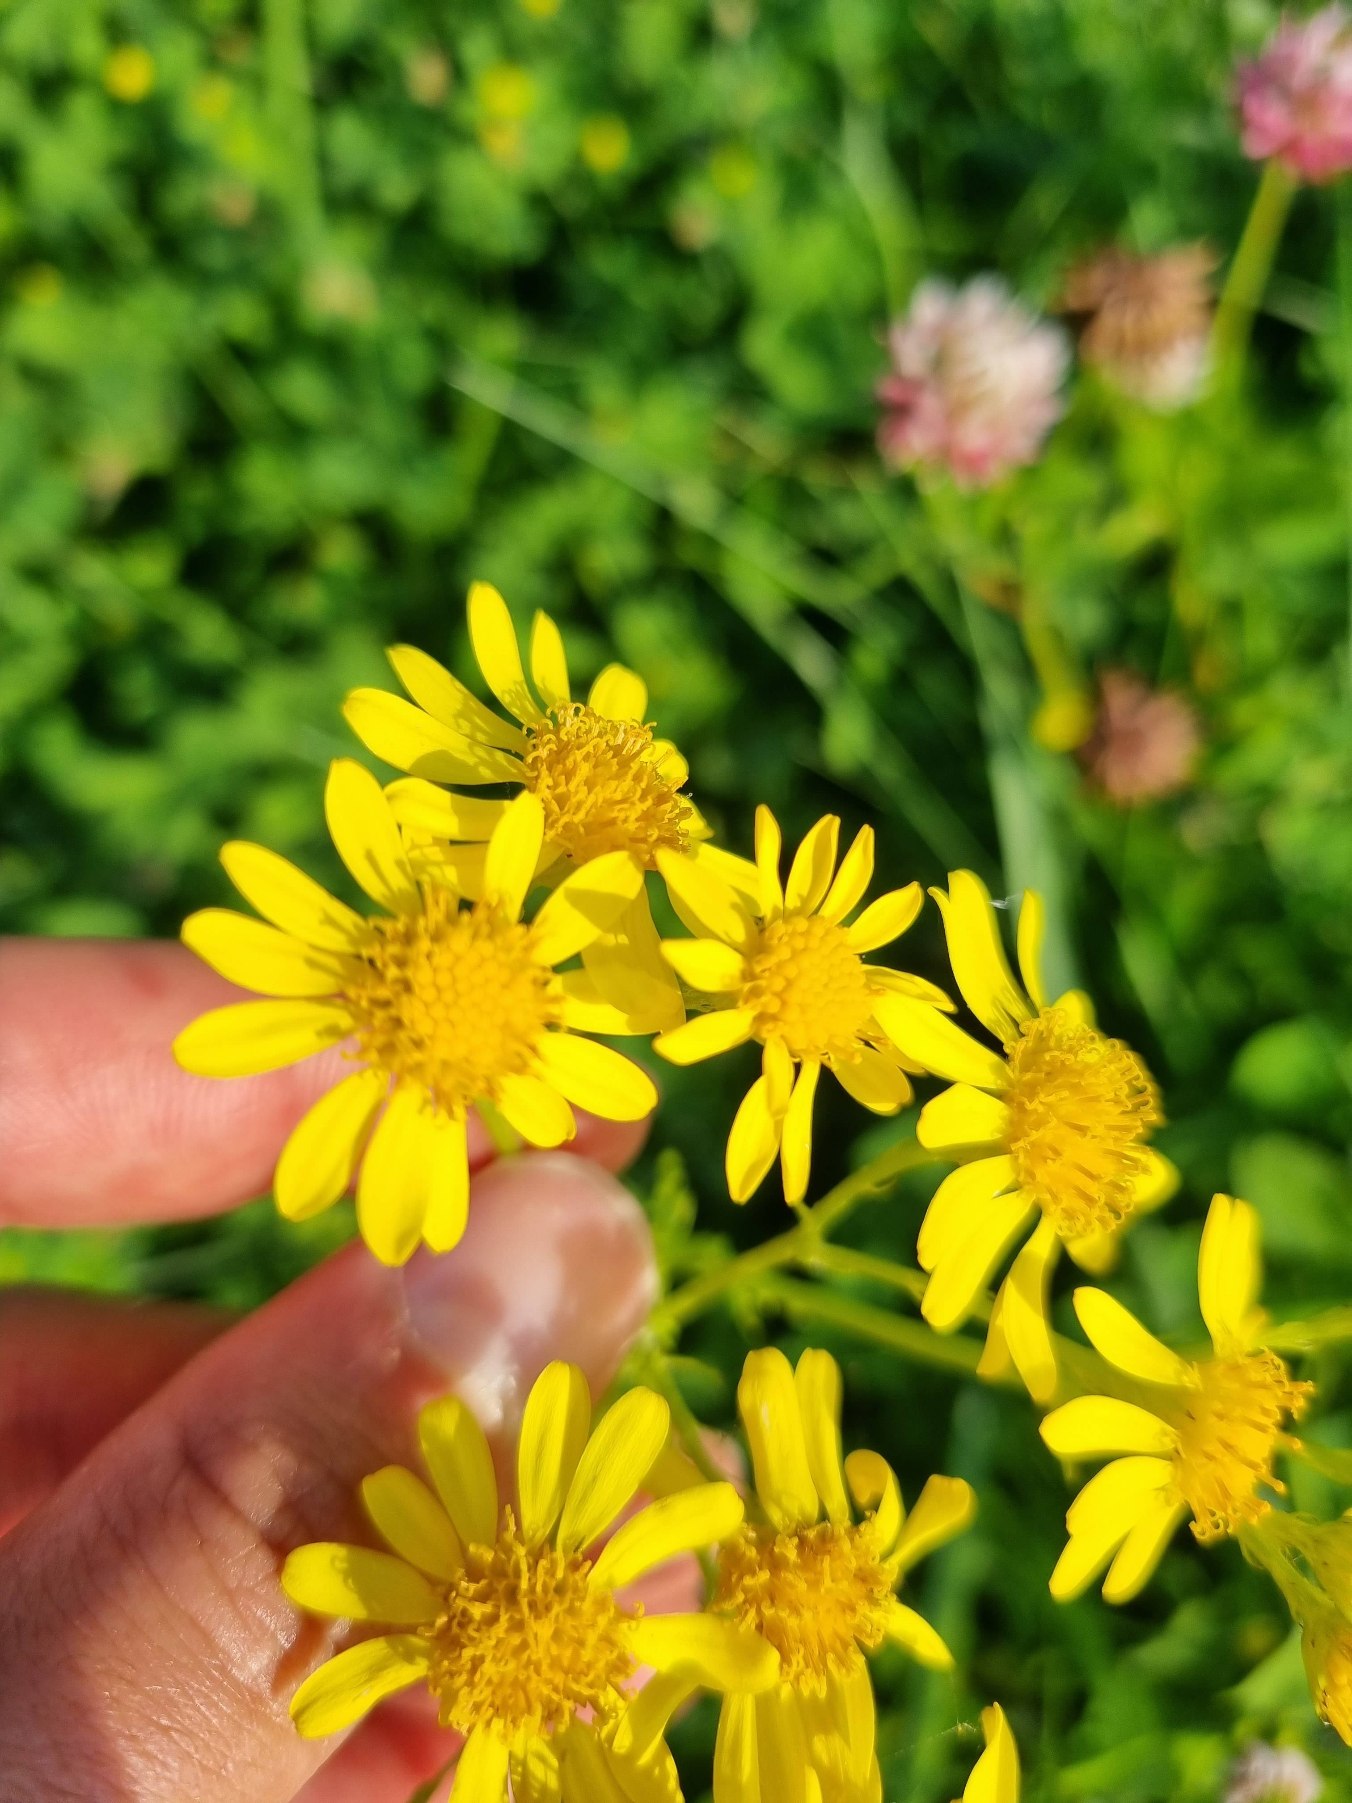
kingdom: Plantae
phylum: Tracheophyta
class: Magnoliopsida
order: Asterales
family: Asteraceae
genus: Jacobaea
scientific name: Jacobaea vulgaris
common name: Eng-brandbæger
